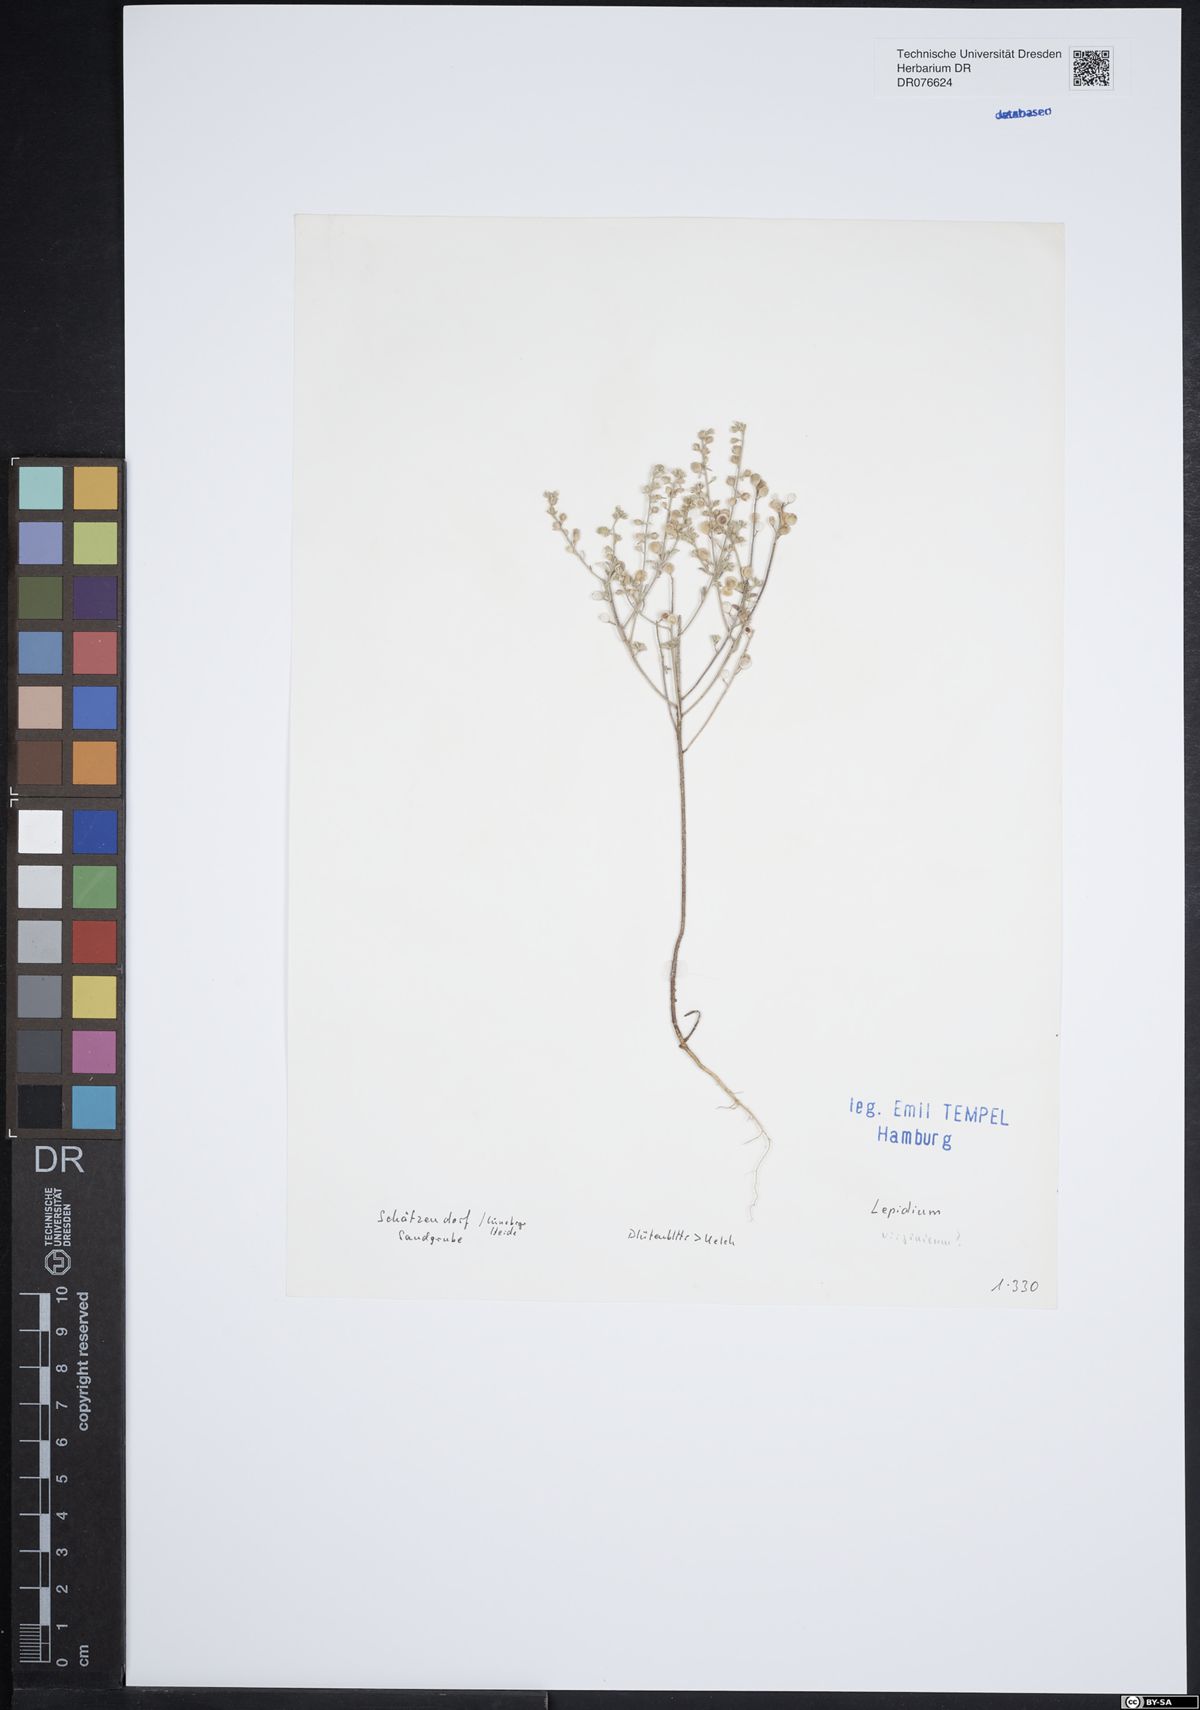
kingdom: Plantae
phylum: Tracheophyta
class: Magnoliopsida
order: Brassicales
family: Brassicaceae
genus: Lepidium
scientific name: Lepidium
